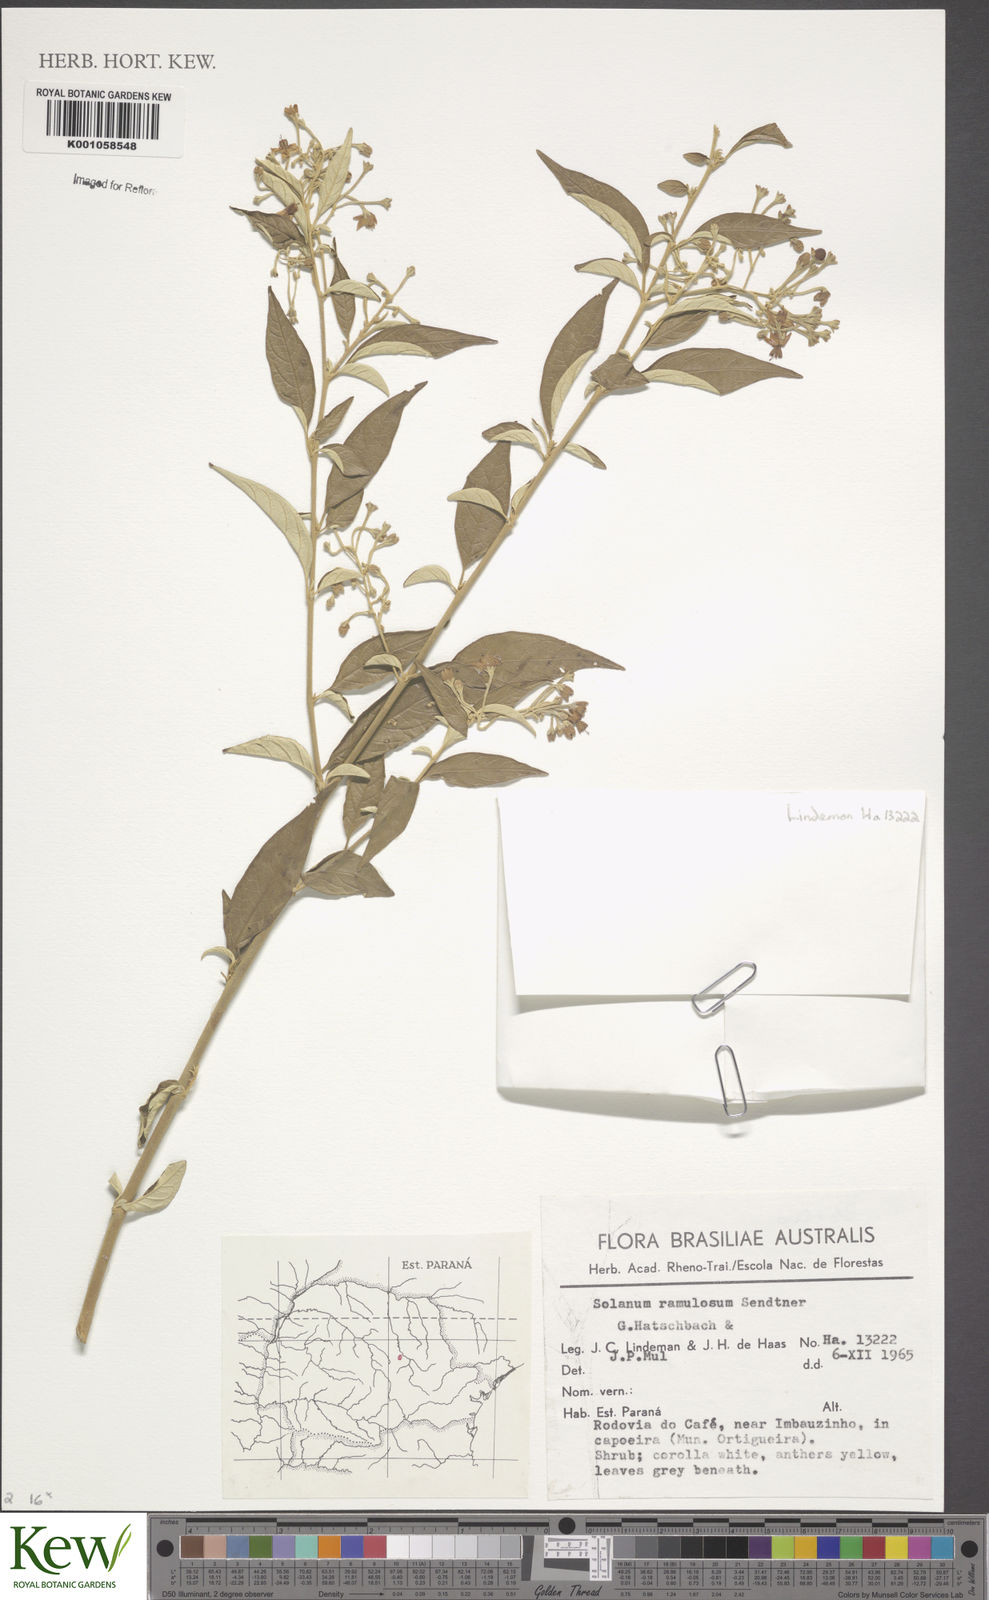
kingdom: Plantae
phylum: Tracheophyta
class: Magnoliopsida
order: Solanales
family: Solanaceae
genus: Solanum
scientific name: Solanum ramulosum
